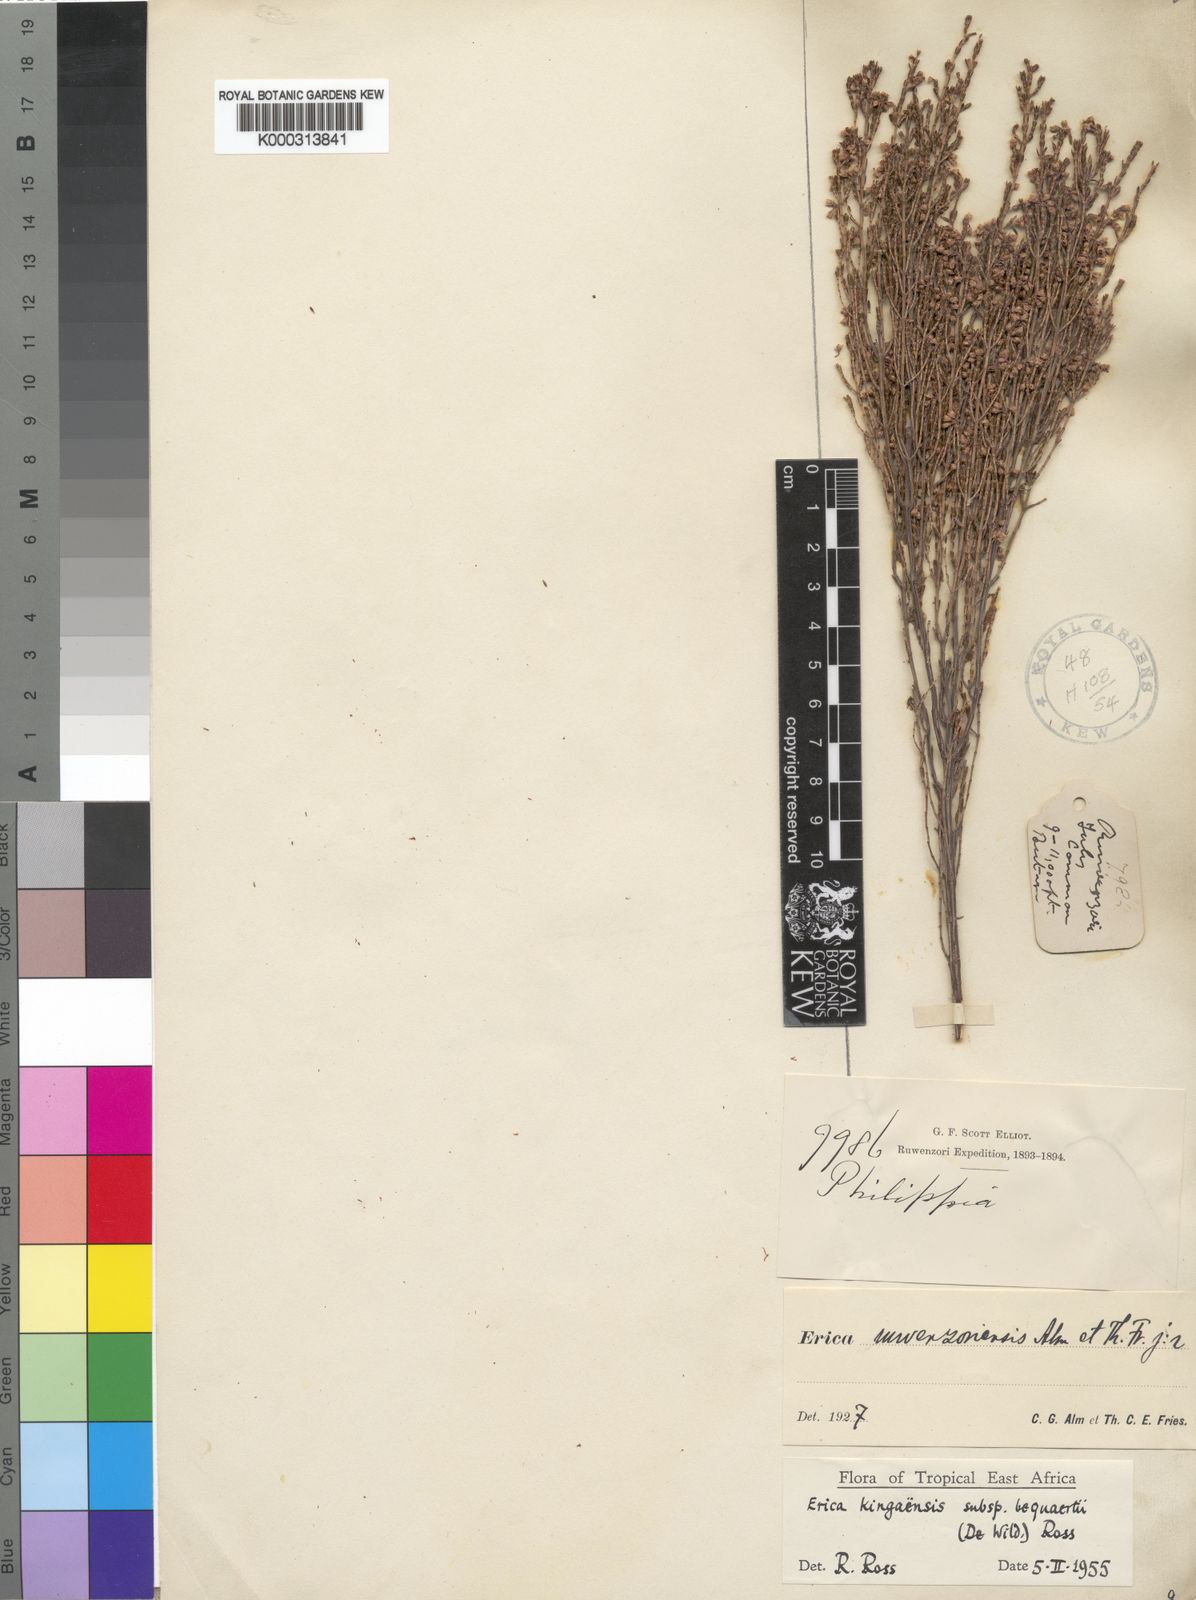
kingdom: Plantae
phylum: Tracheophyta
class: Magnoliopsida
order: Ericales
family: Ericaceae
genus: Erica
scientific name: Erica kingaensis
